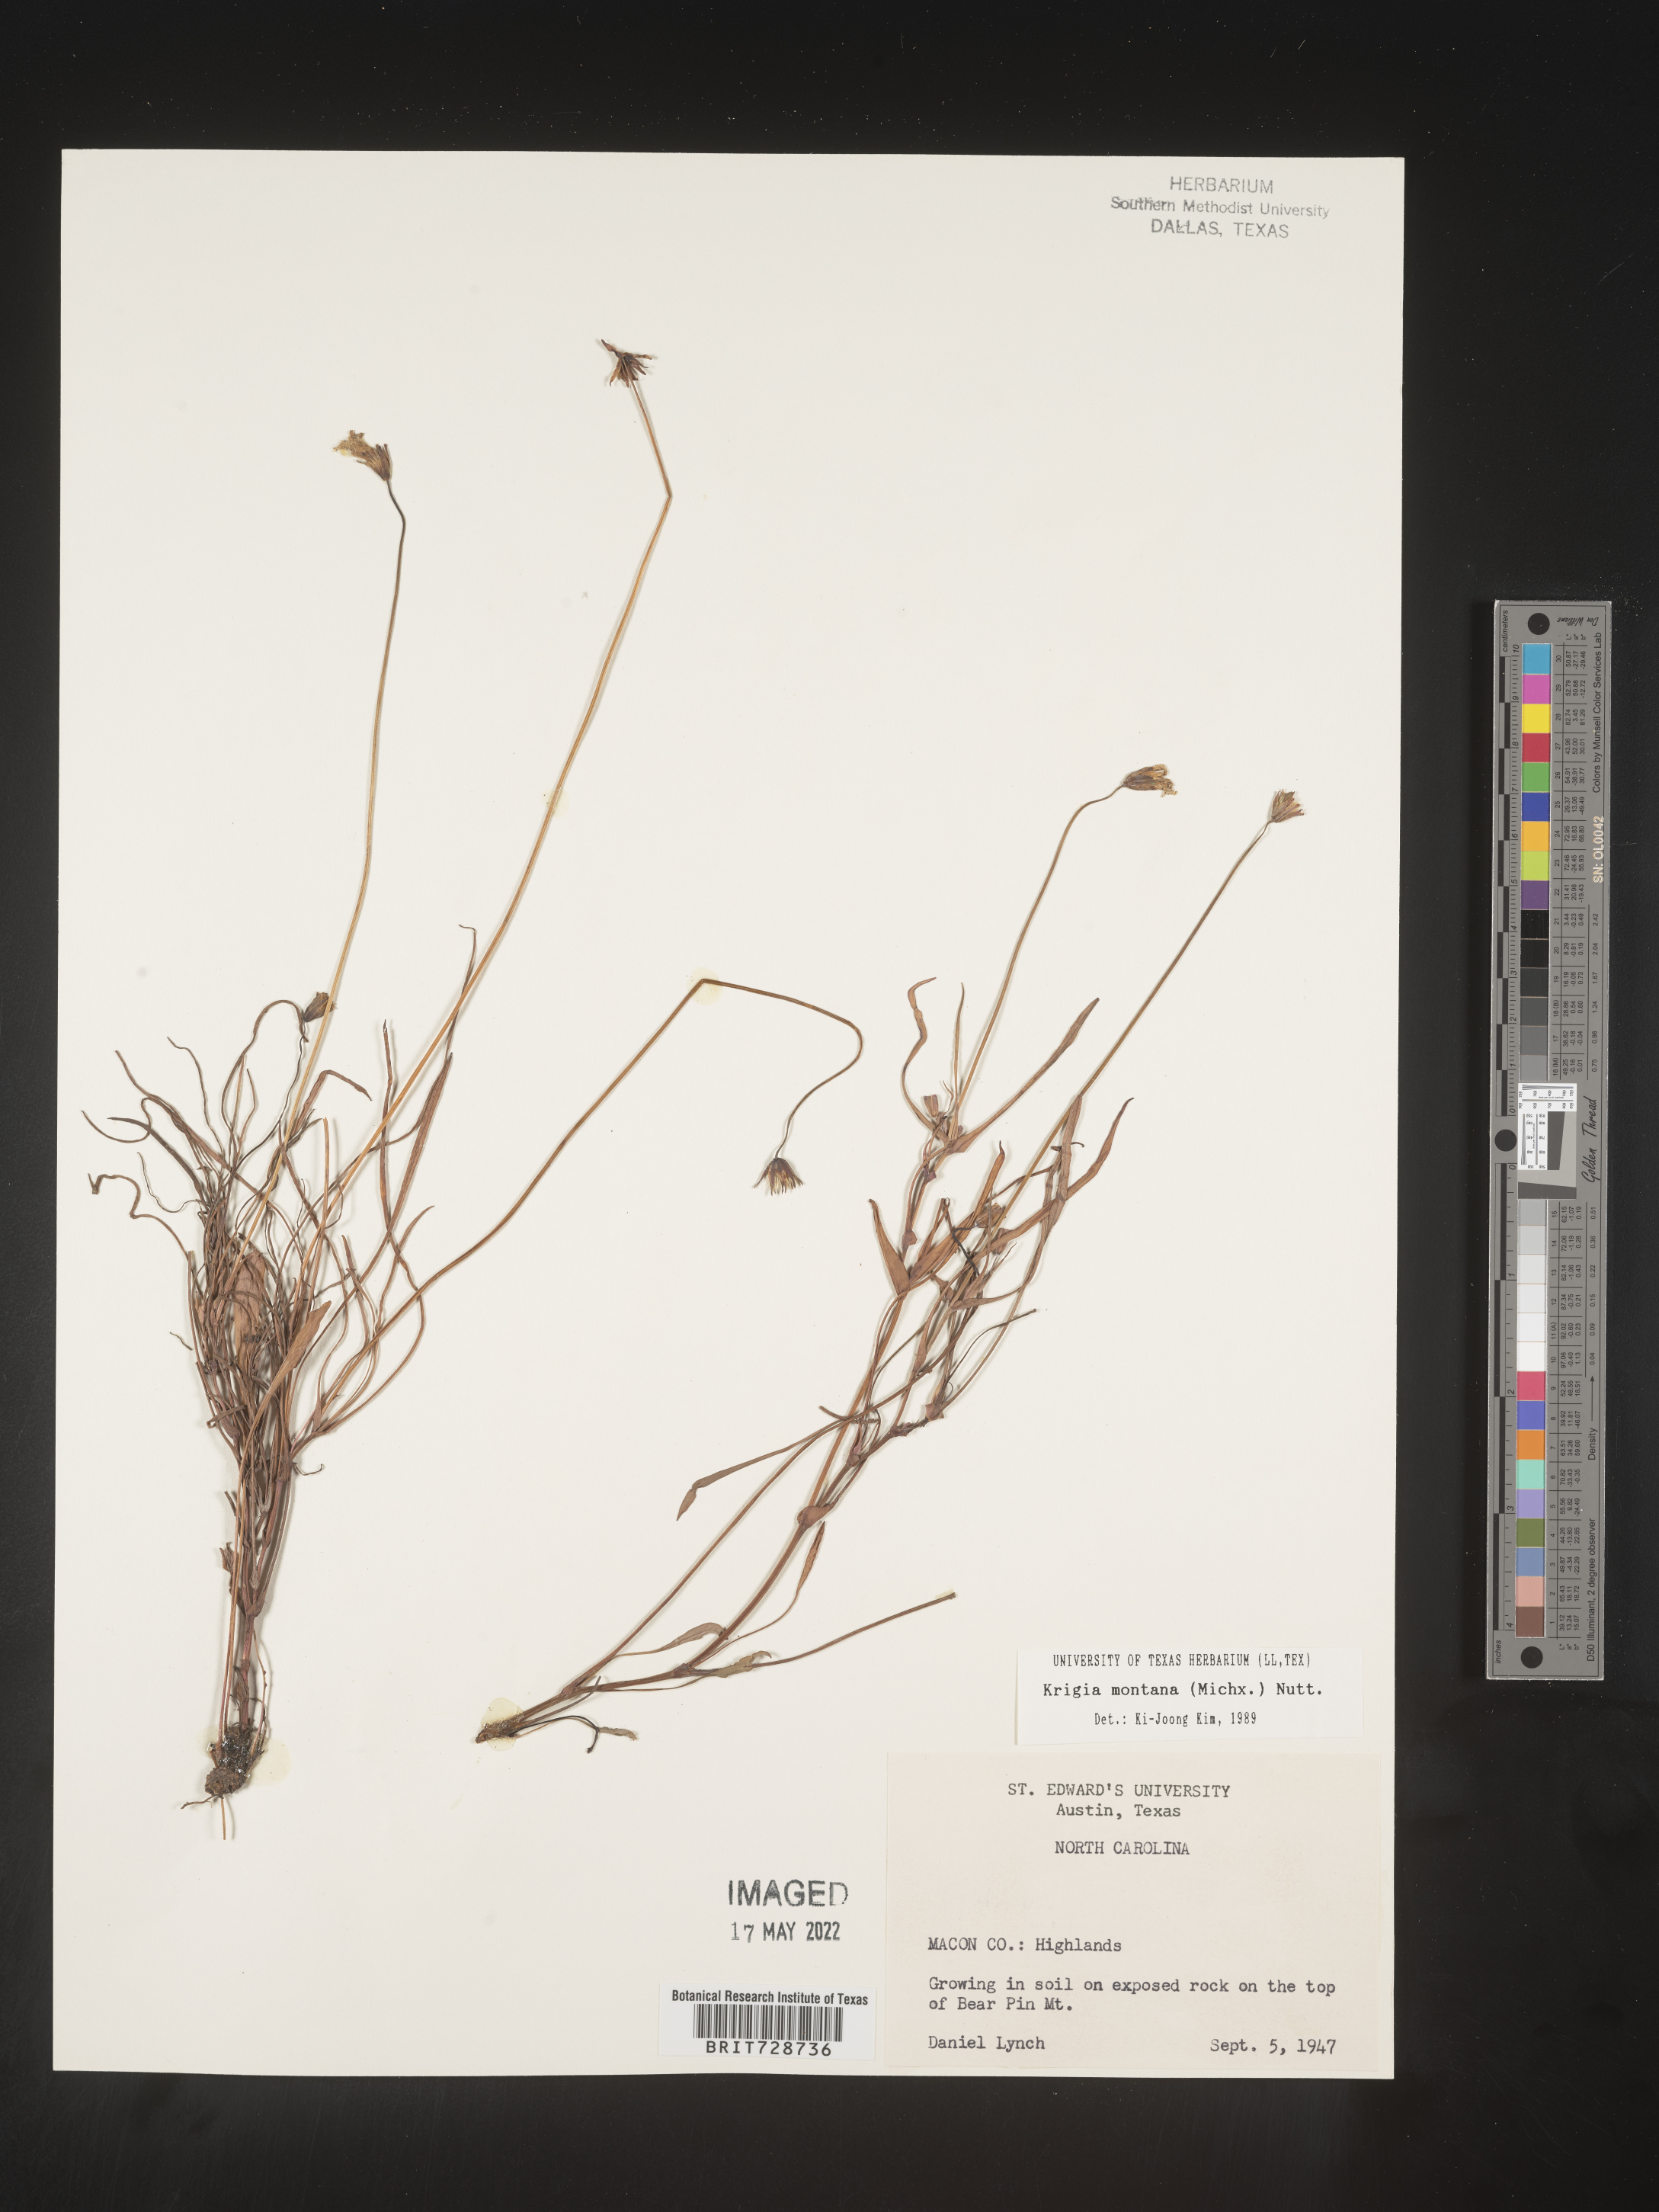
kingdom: Plantae
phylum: Tracheophyta
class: Magnoliopsida
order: Asterales
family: Asteraceae
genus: Krigia
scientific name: Krigia montana
